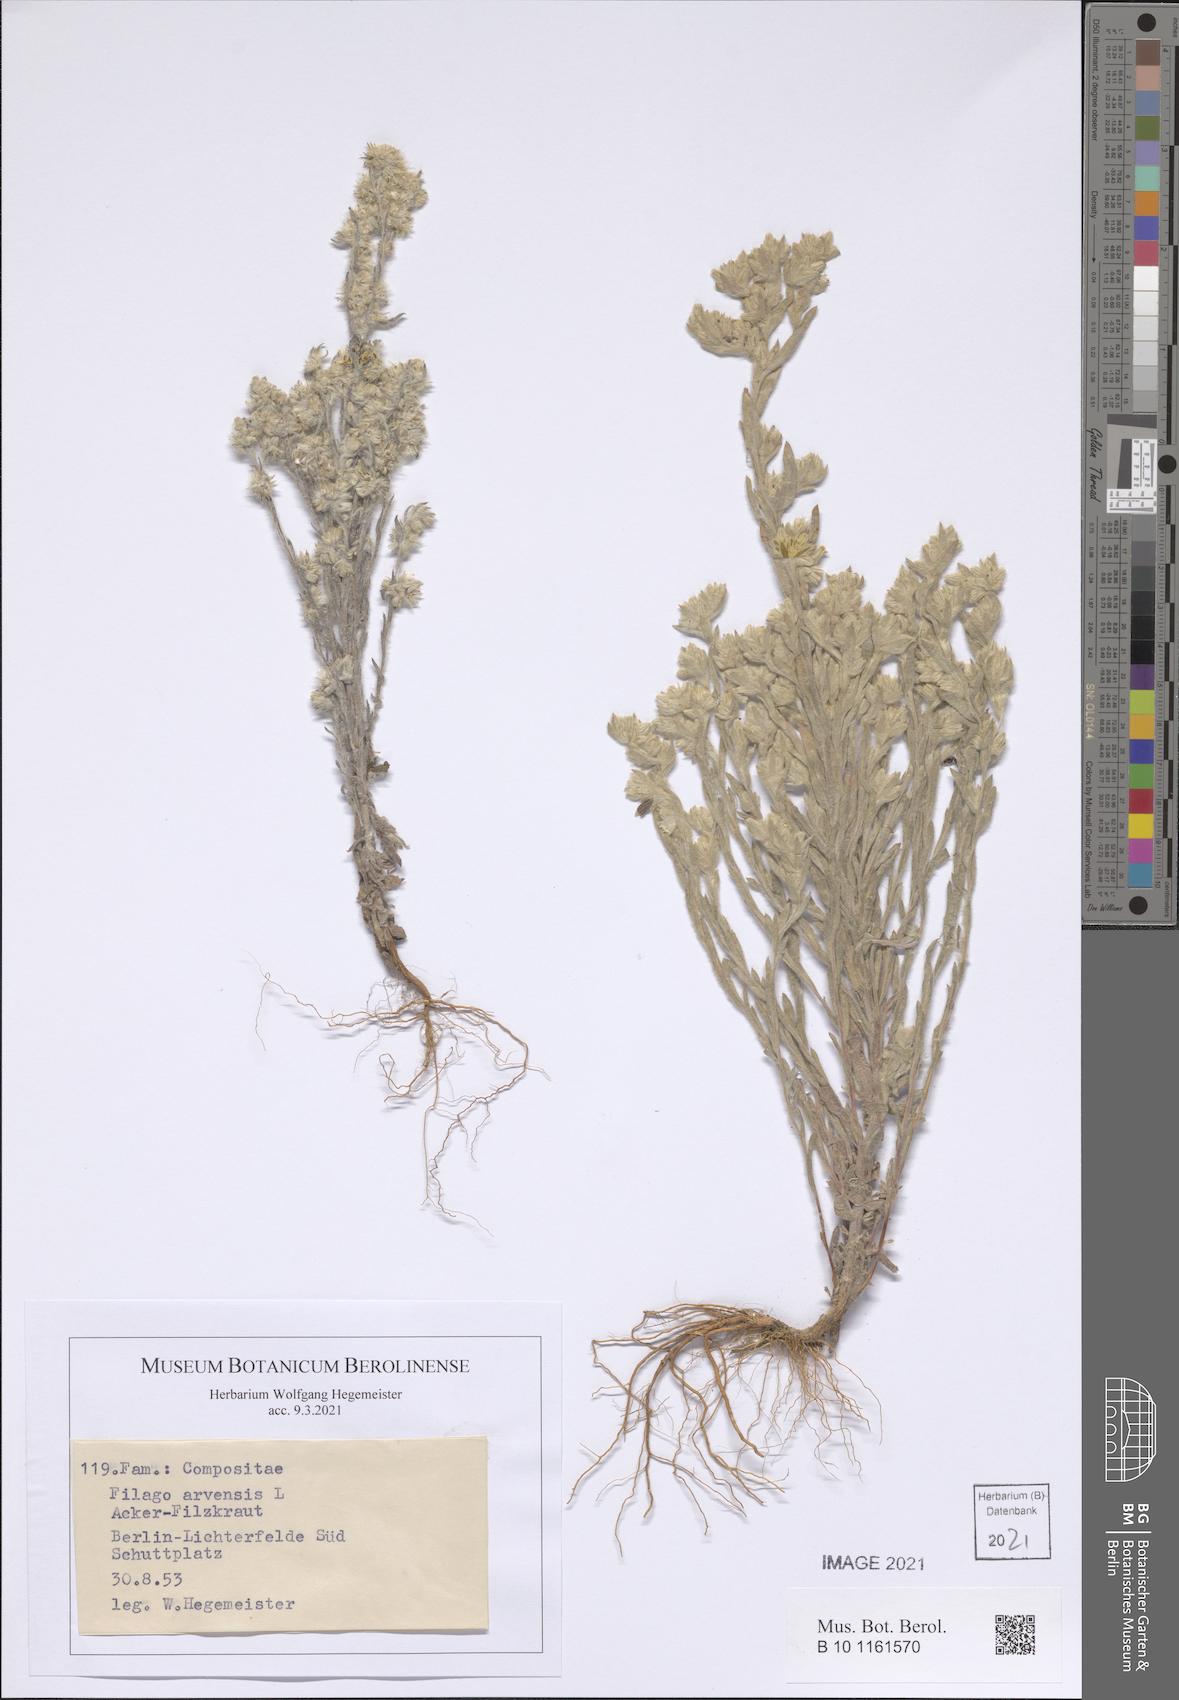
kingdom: Plantae
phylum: Tracheophyta
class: Magnoliopsida
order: Asterales
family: Asteraceae
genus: Filago
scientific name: Filago arvensis
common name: Field cudweed
